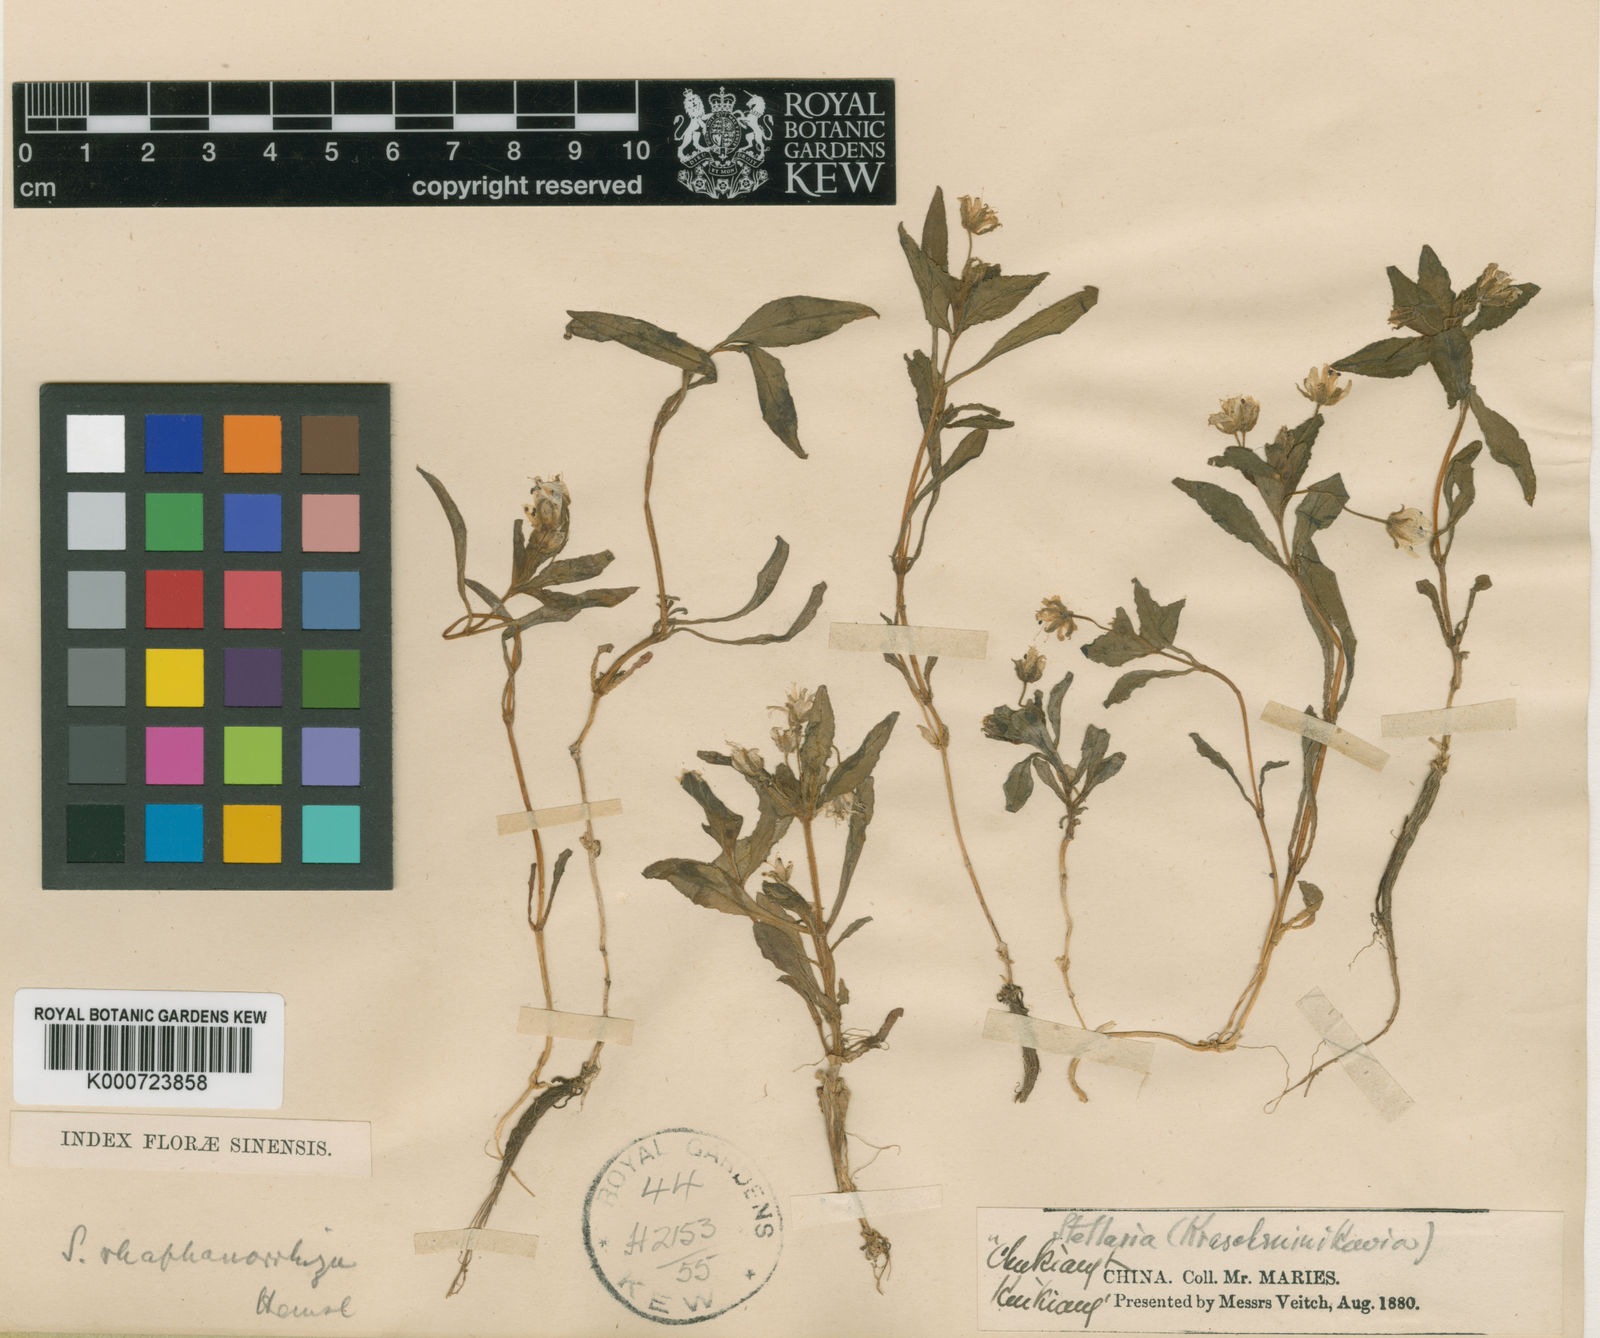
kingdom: Plantae
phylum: Tracheophyta
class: Magnoliopsida
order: Caryophyllales
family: Caryophyllaceae
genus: Pseudostellaria
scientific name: Pseudostellaria heterophylla
